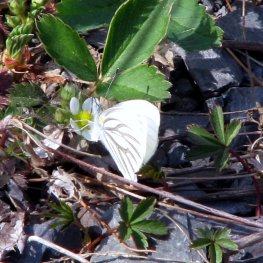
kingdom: Animalia
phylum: Arthropoda
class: Insecta
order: Lepidoptera
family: Pieridae
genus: Pieris
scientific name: Pieris oleracea
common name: Mustard White
